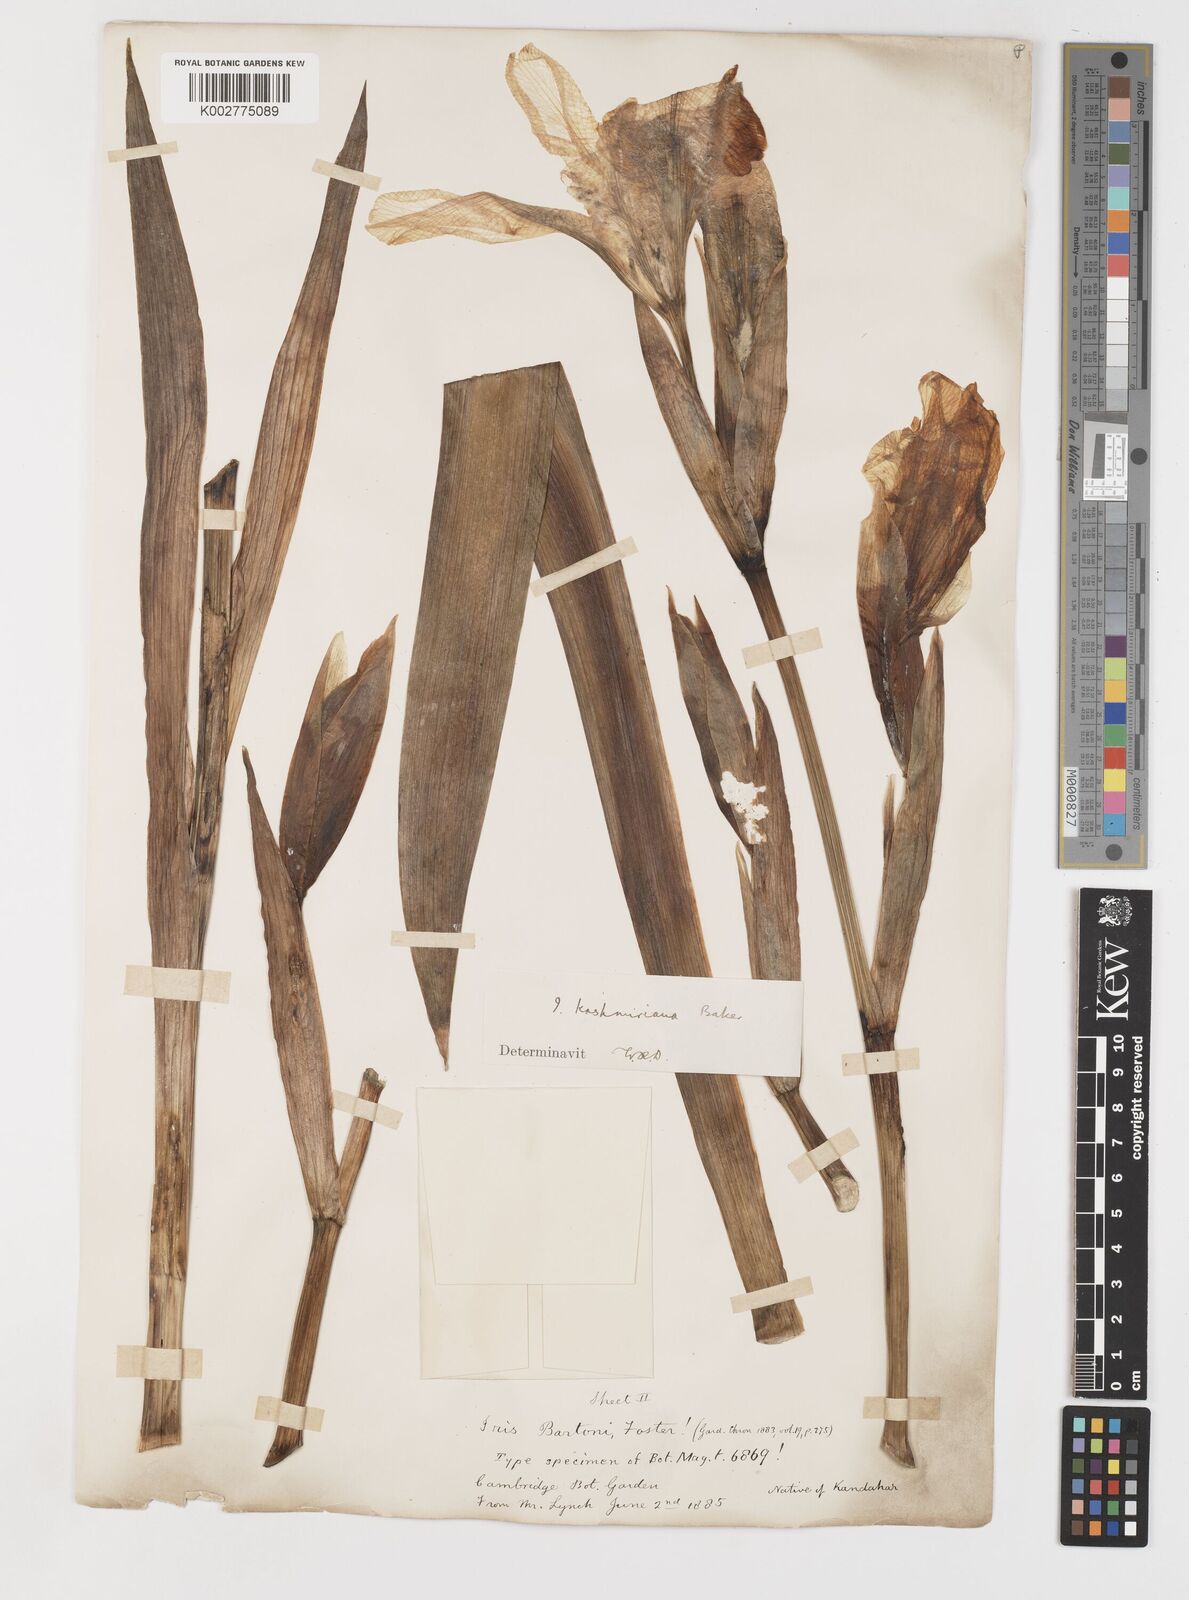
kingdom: Plantae
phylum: Tracheophyta
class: Liliopsida
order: Asparagales
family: Iridaceae
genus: Iris
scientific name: Iris kashmiriana
